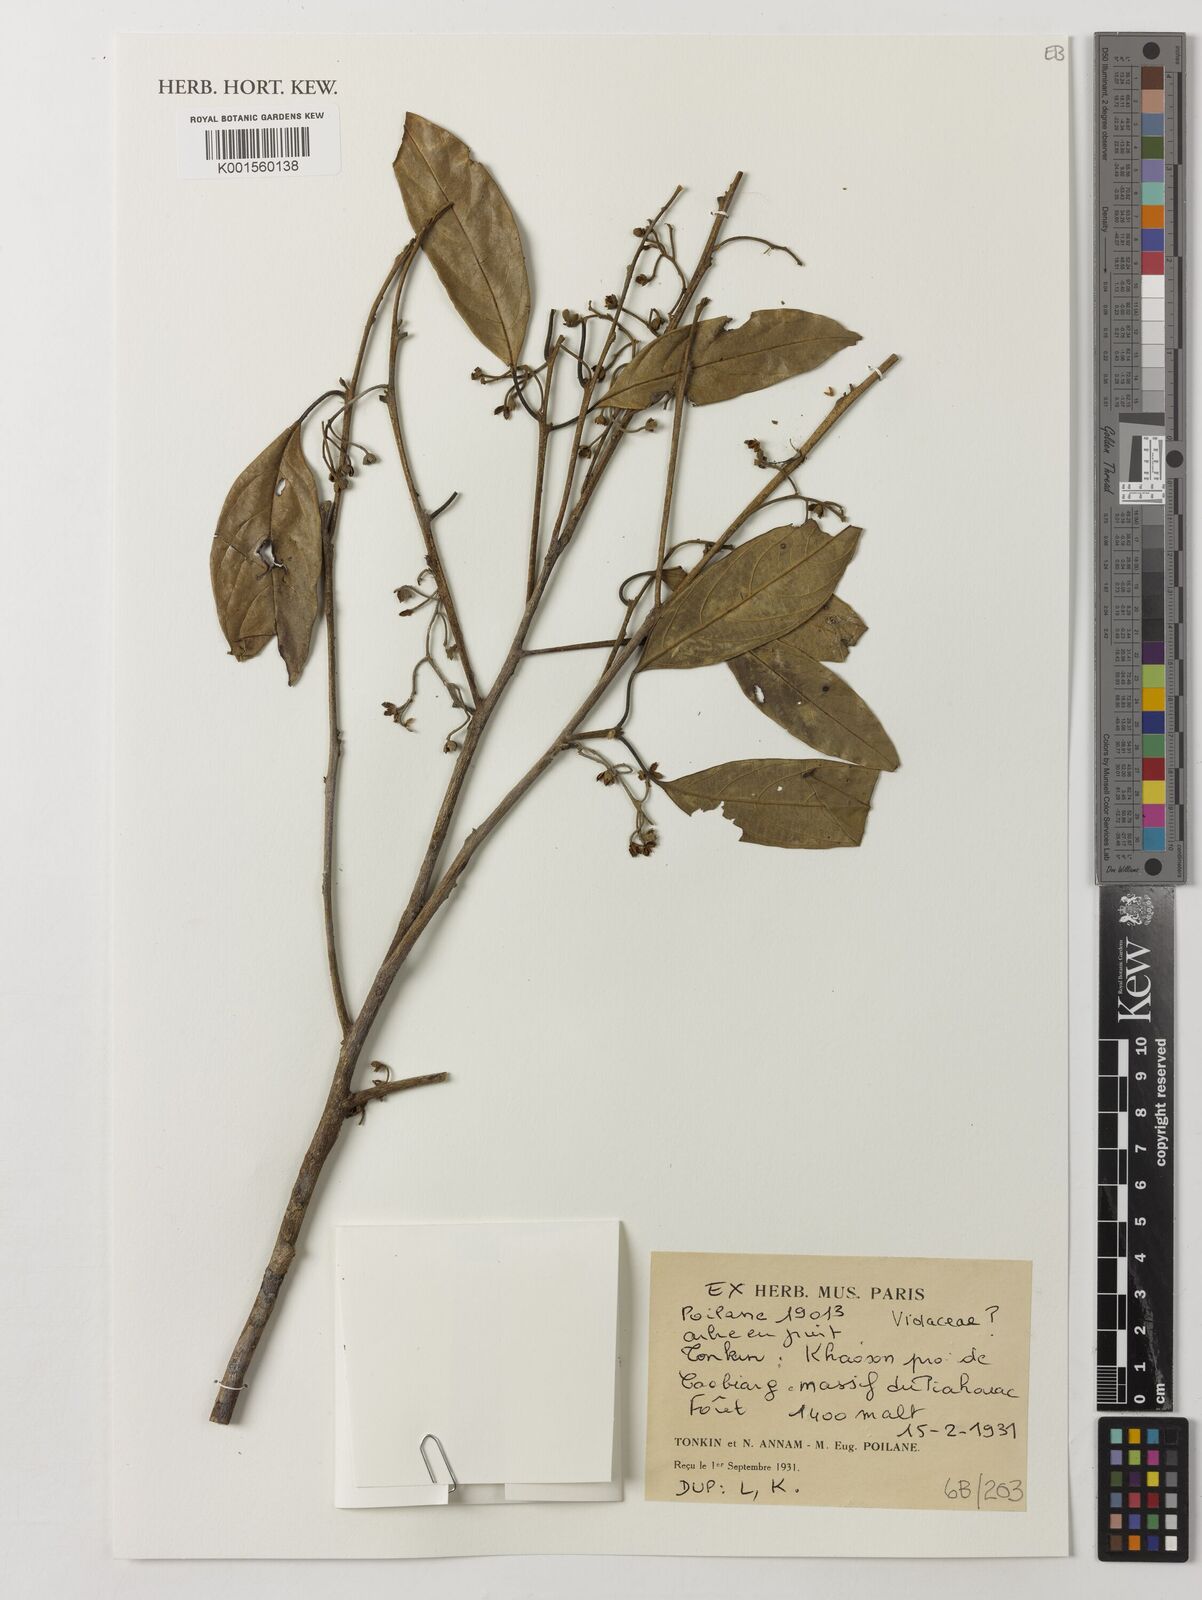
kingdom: Plantae
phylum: Tracheophyta
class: Magnoliopsida
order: Malpighiales
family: Violaceae
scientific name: Violaceae
